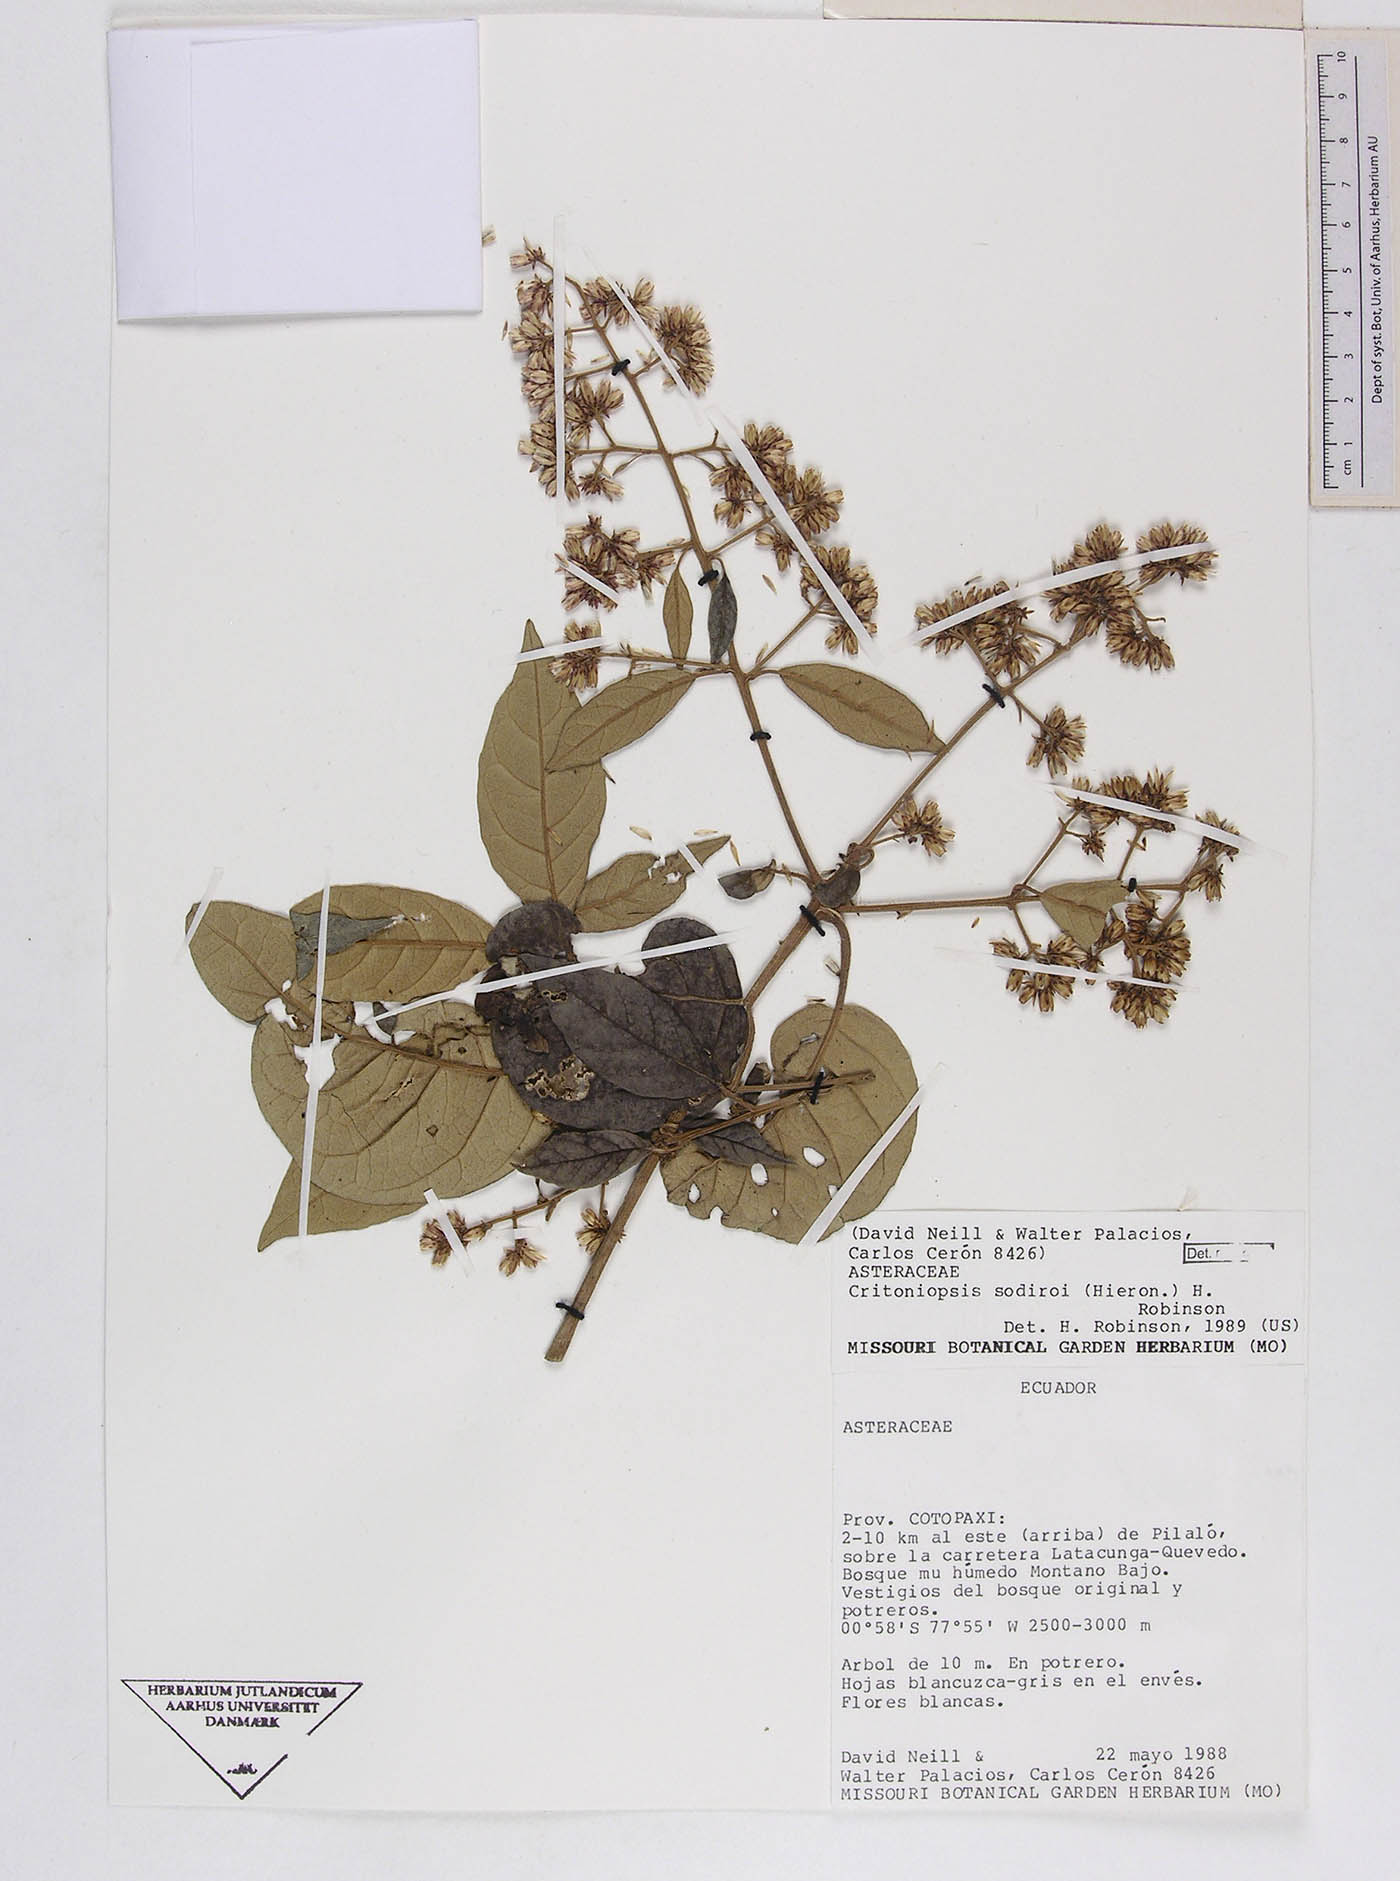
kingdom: Plantae
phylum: Tracheophyta
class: Magnoliopsida
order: Asterales
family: Asteraceae
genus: Critoniopsis
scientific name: Critoniopsis sodiroi
